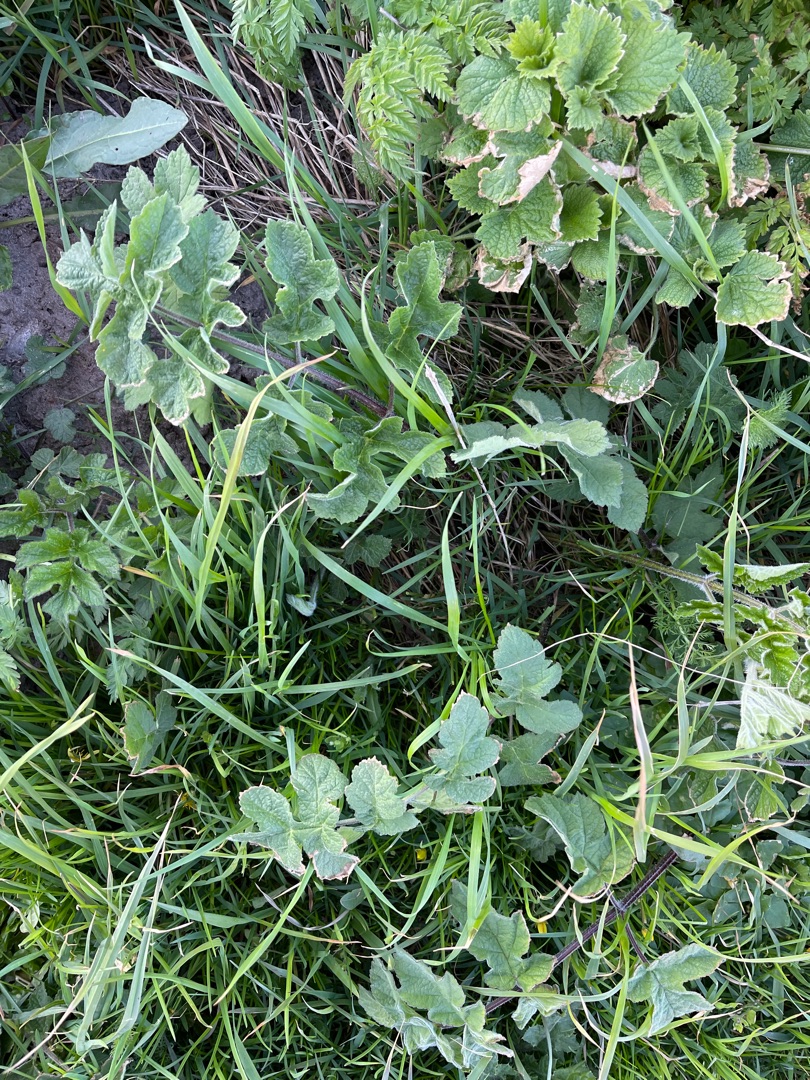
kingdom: Plantae
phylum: Tracheophyta
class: Magnoliopsida
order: Apiales
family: Apiaceae
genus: Heracleum
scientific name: Heracleum sphondylium
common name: Almindelig bjørneklo
